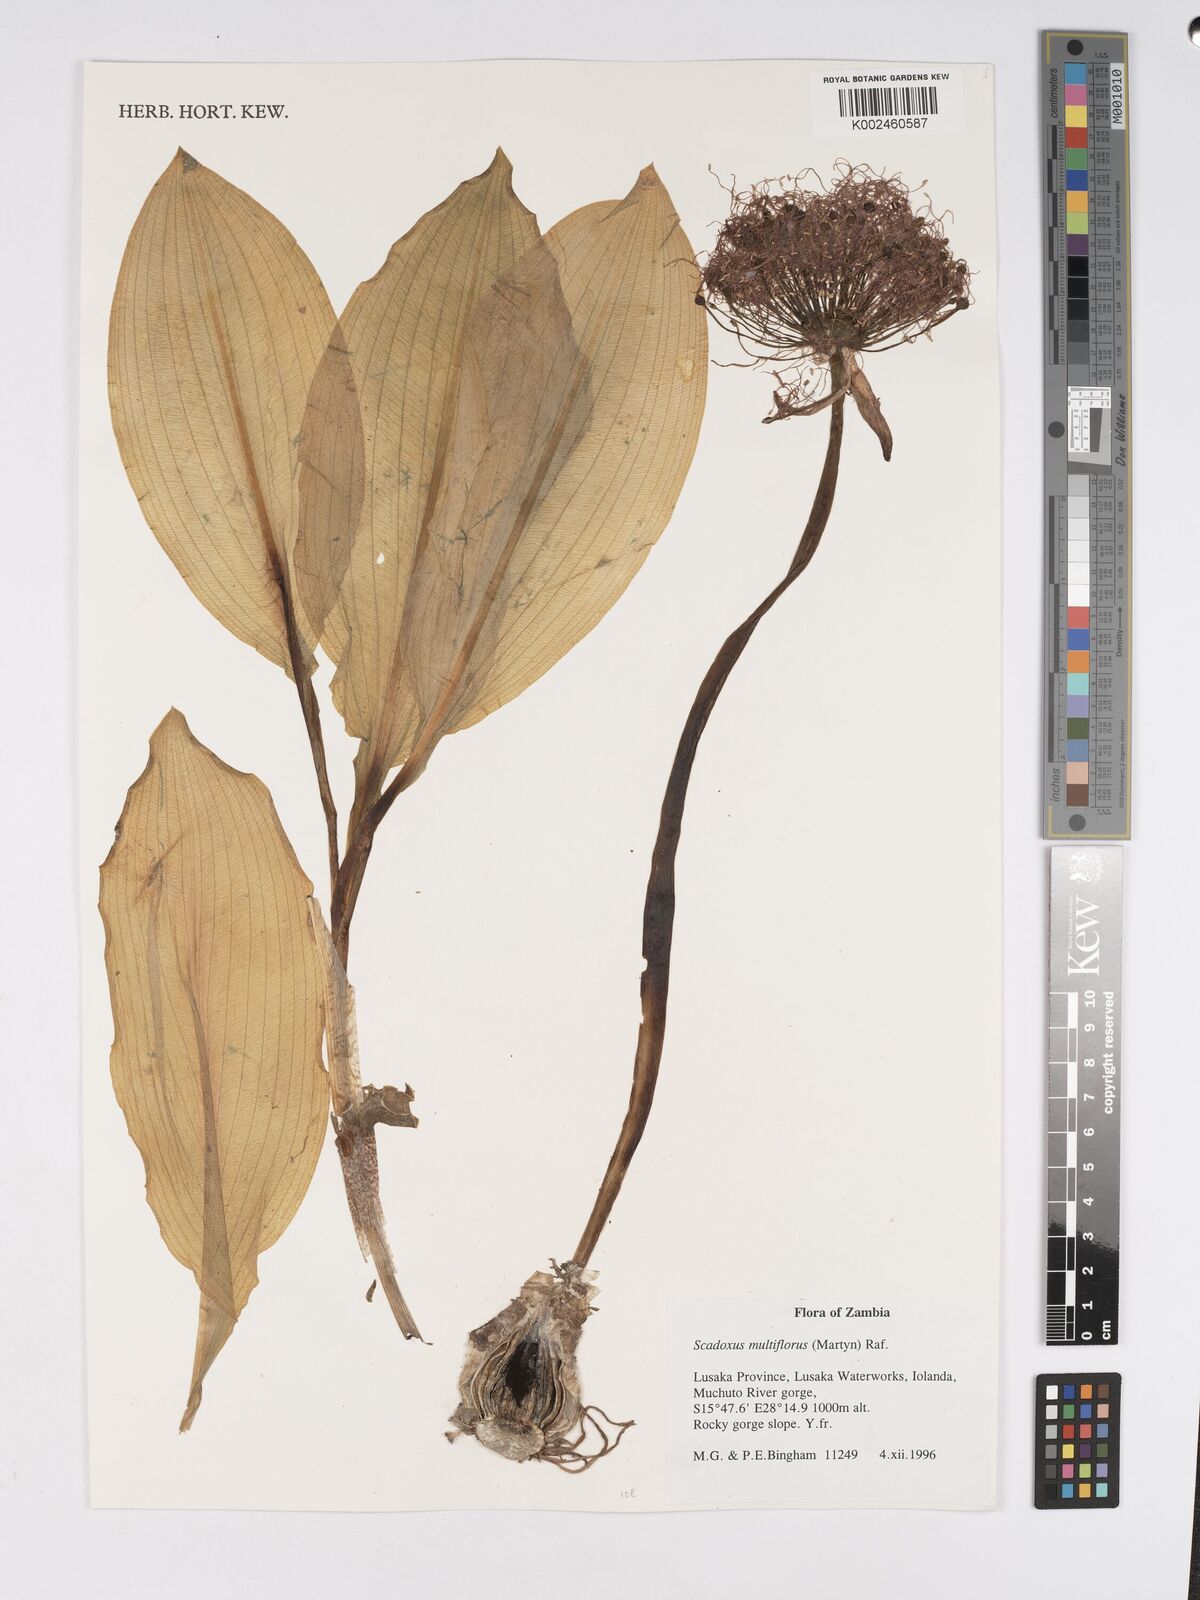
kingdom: Plantae
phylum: Tracheophyta
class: Liliopsida
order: Asparagales
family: Amaryllidaceae
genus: Scadoxus
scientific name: Scadoxus multiflorus
